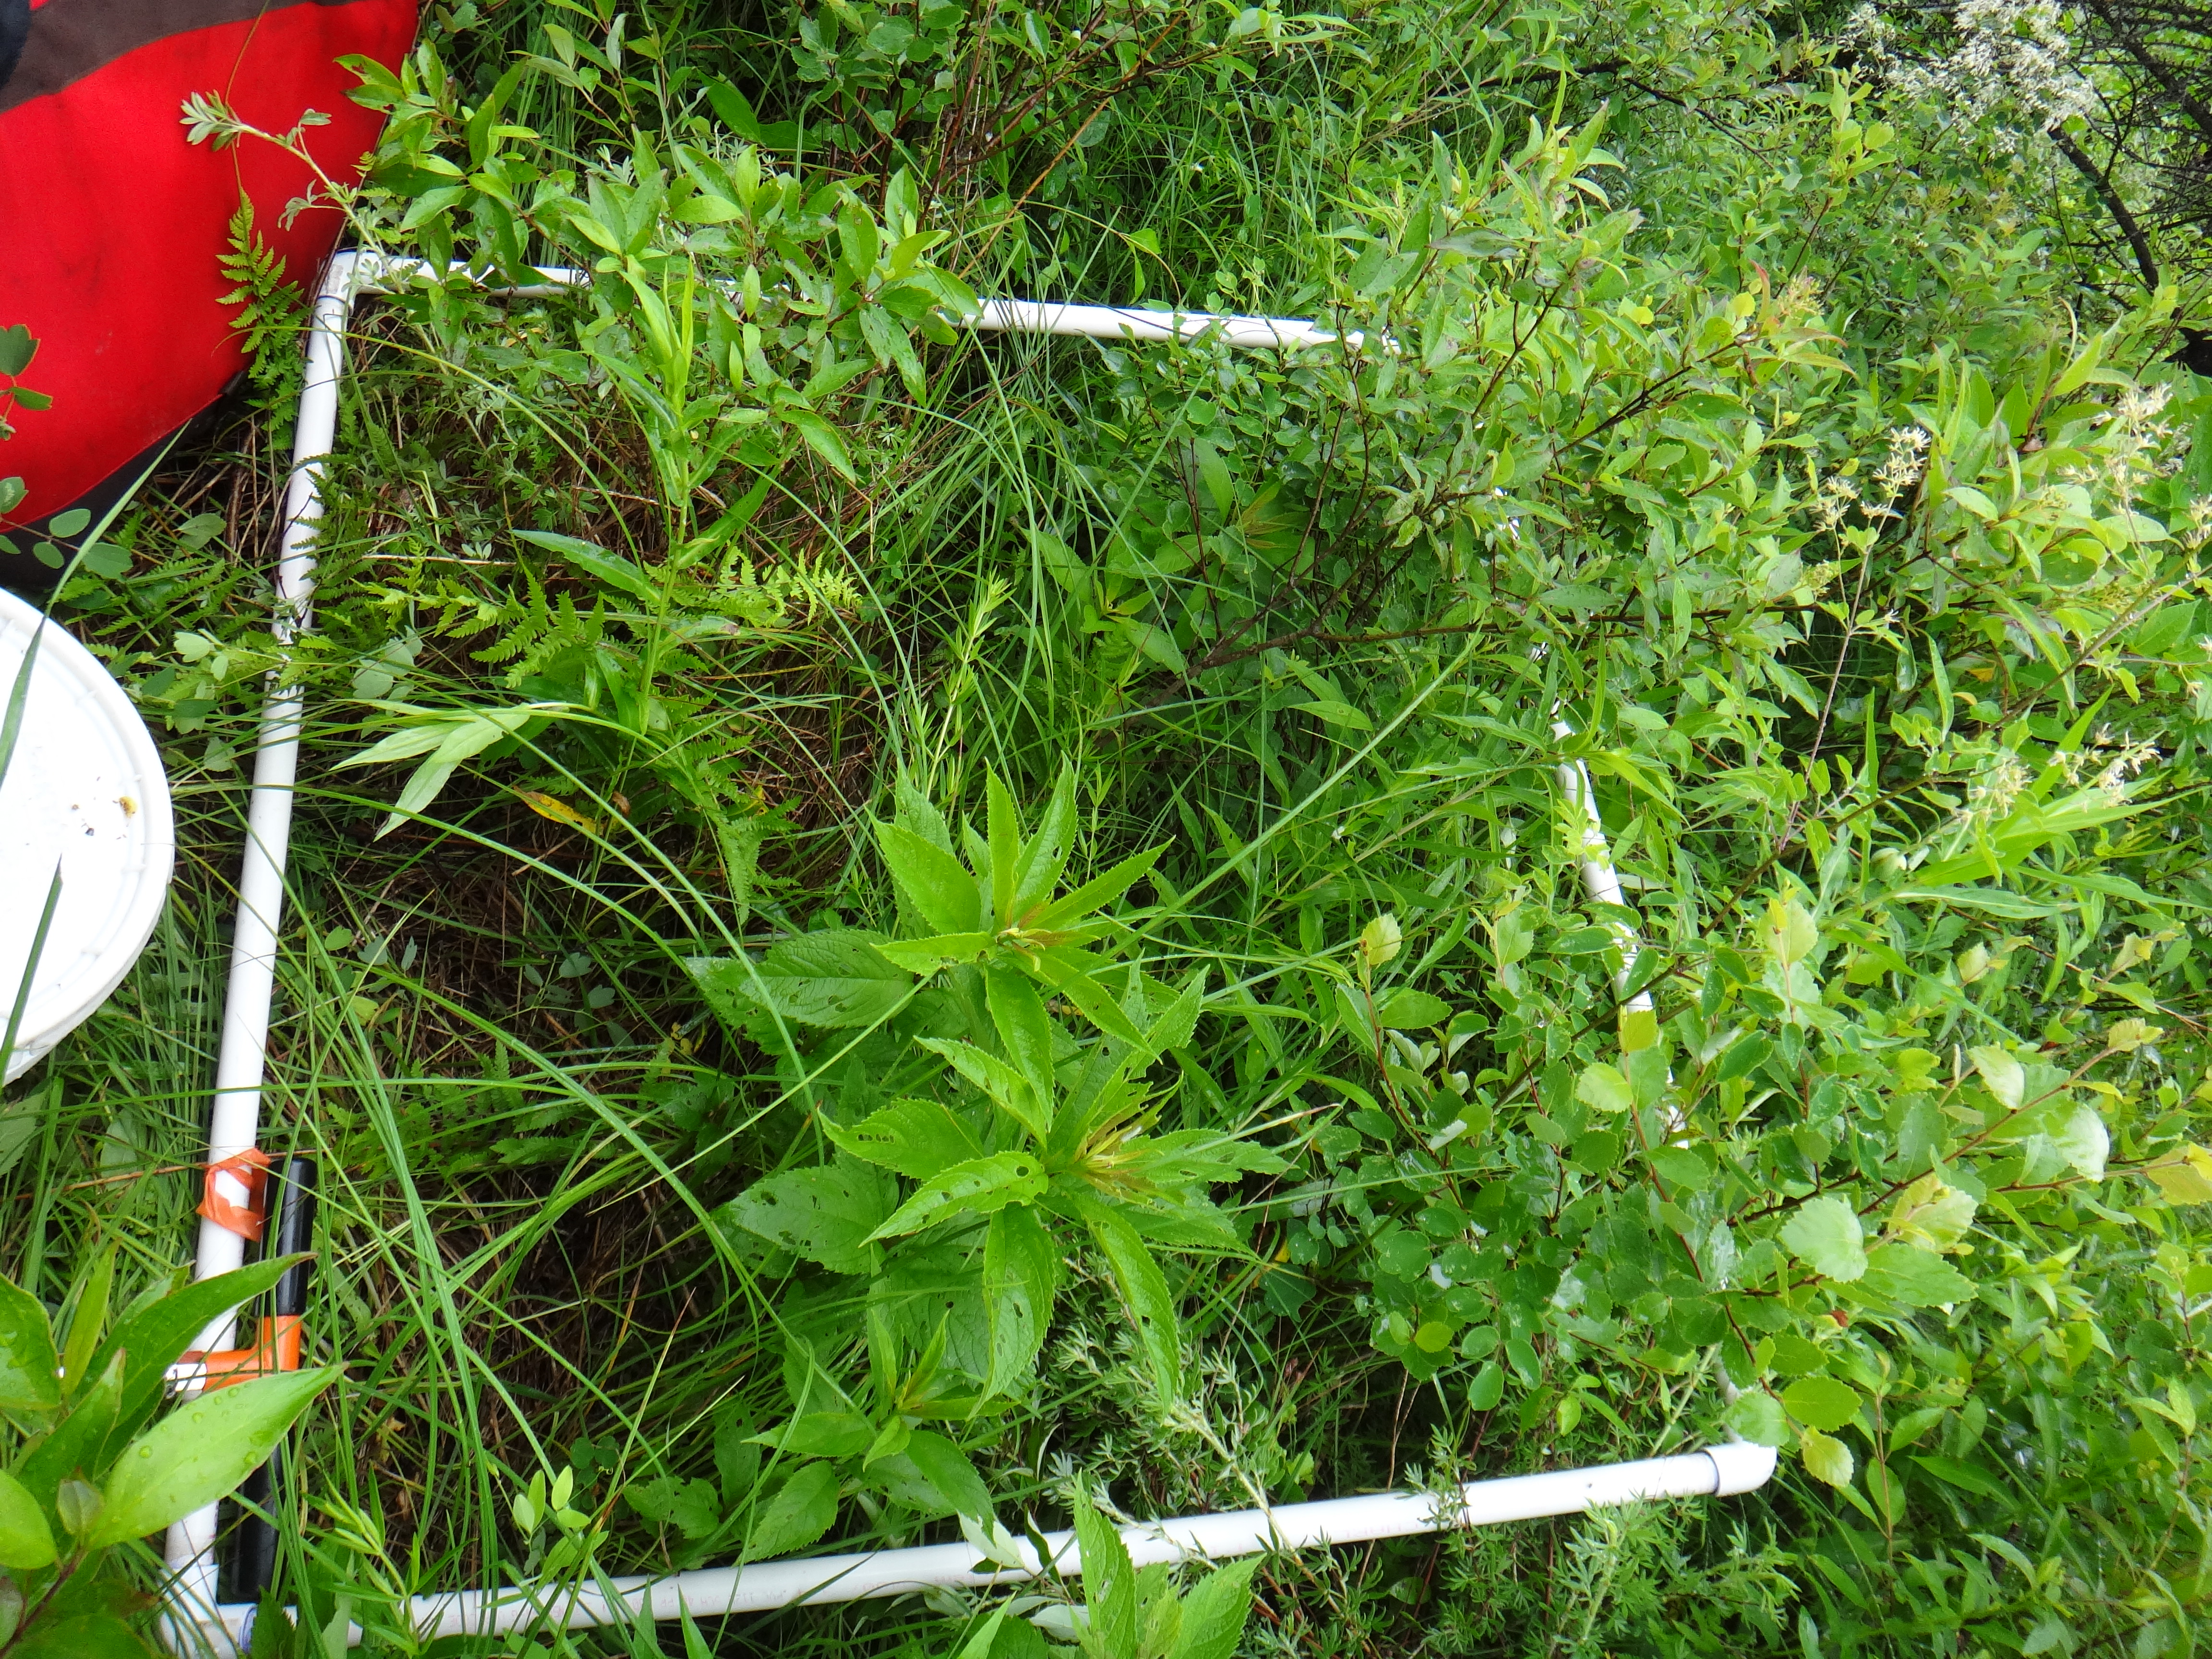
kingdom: Plantae
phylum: Tracheophyta
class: Liliopsida
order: Poales
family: Cyperaceae
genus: Carex
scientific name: Carex sterilis
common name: Dioecious sedge
